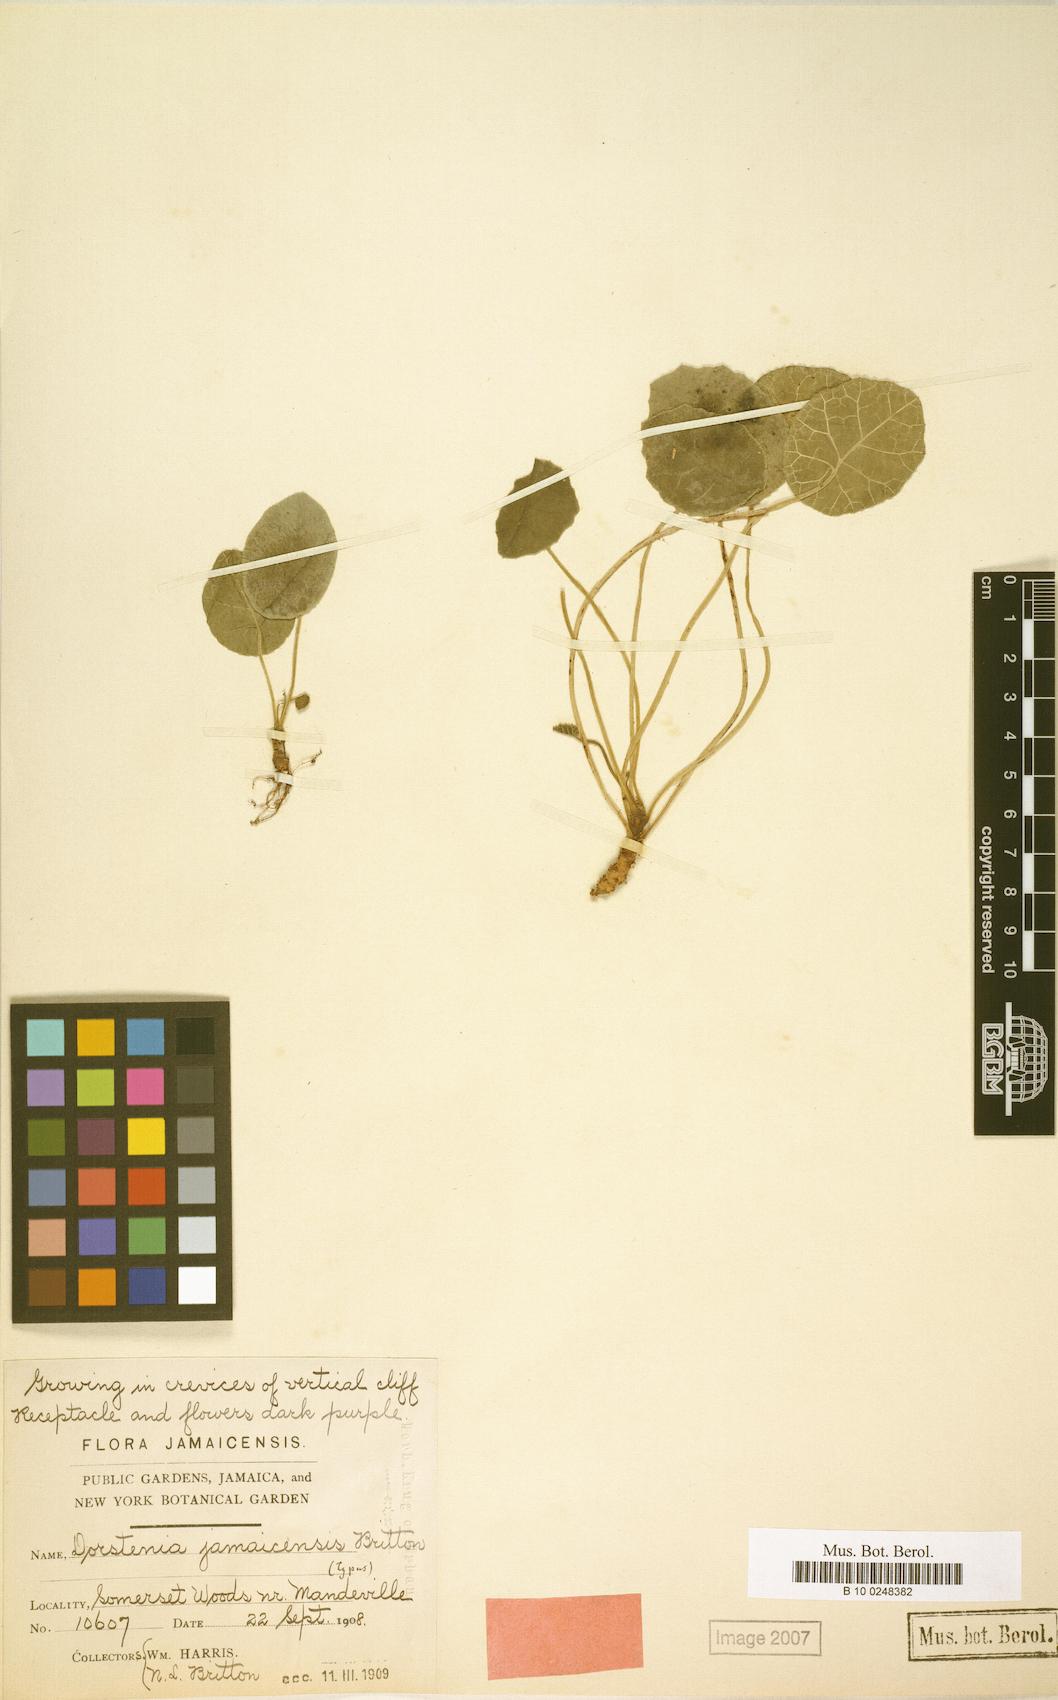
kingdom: Plantae
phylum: Tracheophyta
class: Magnoliopsida
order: Rosales
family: Moraceae
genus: Dorstenia
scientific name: Dorstenia jamaicensis
